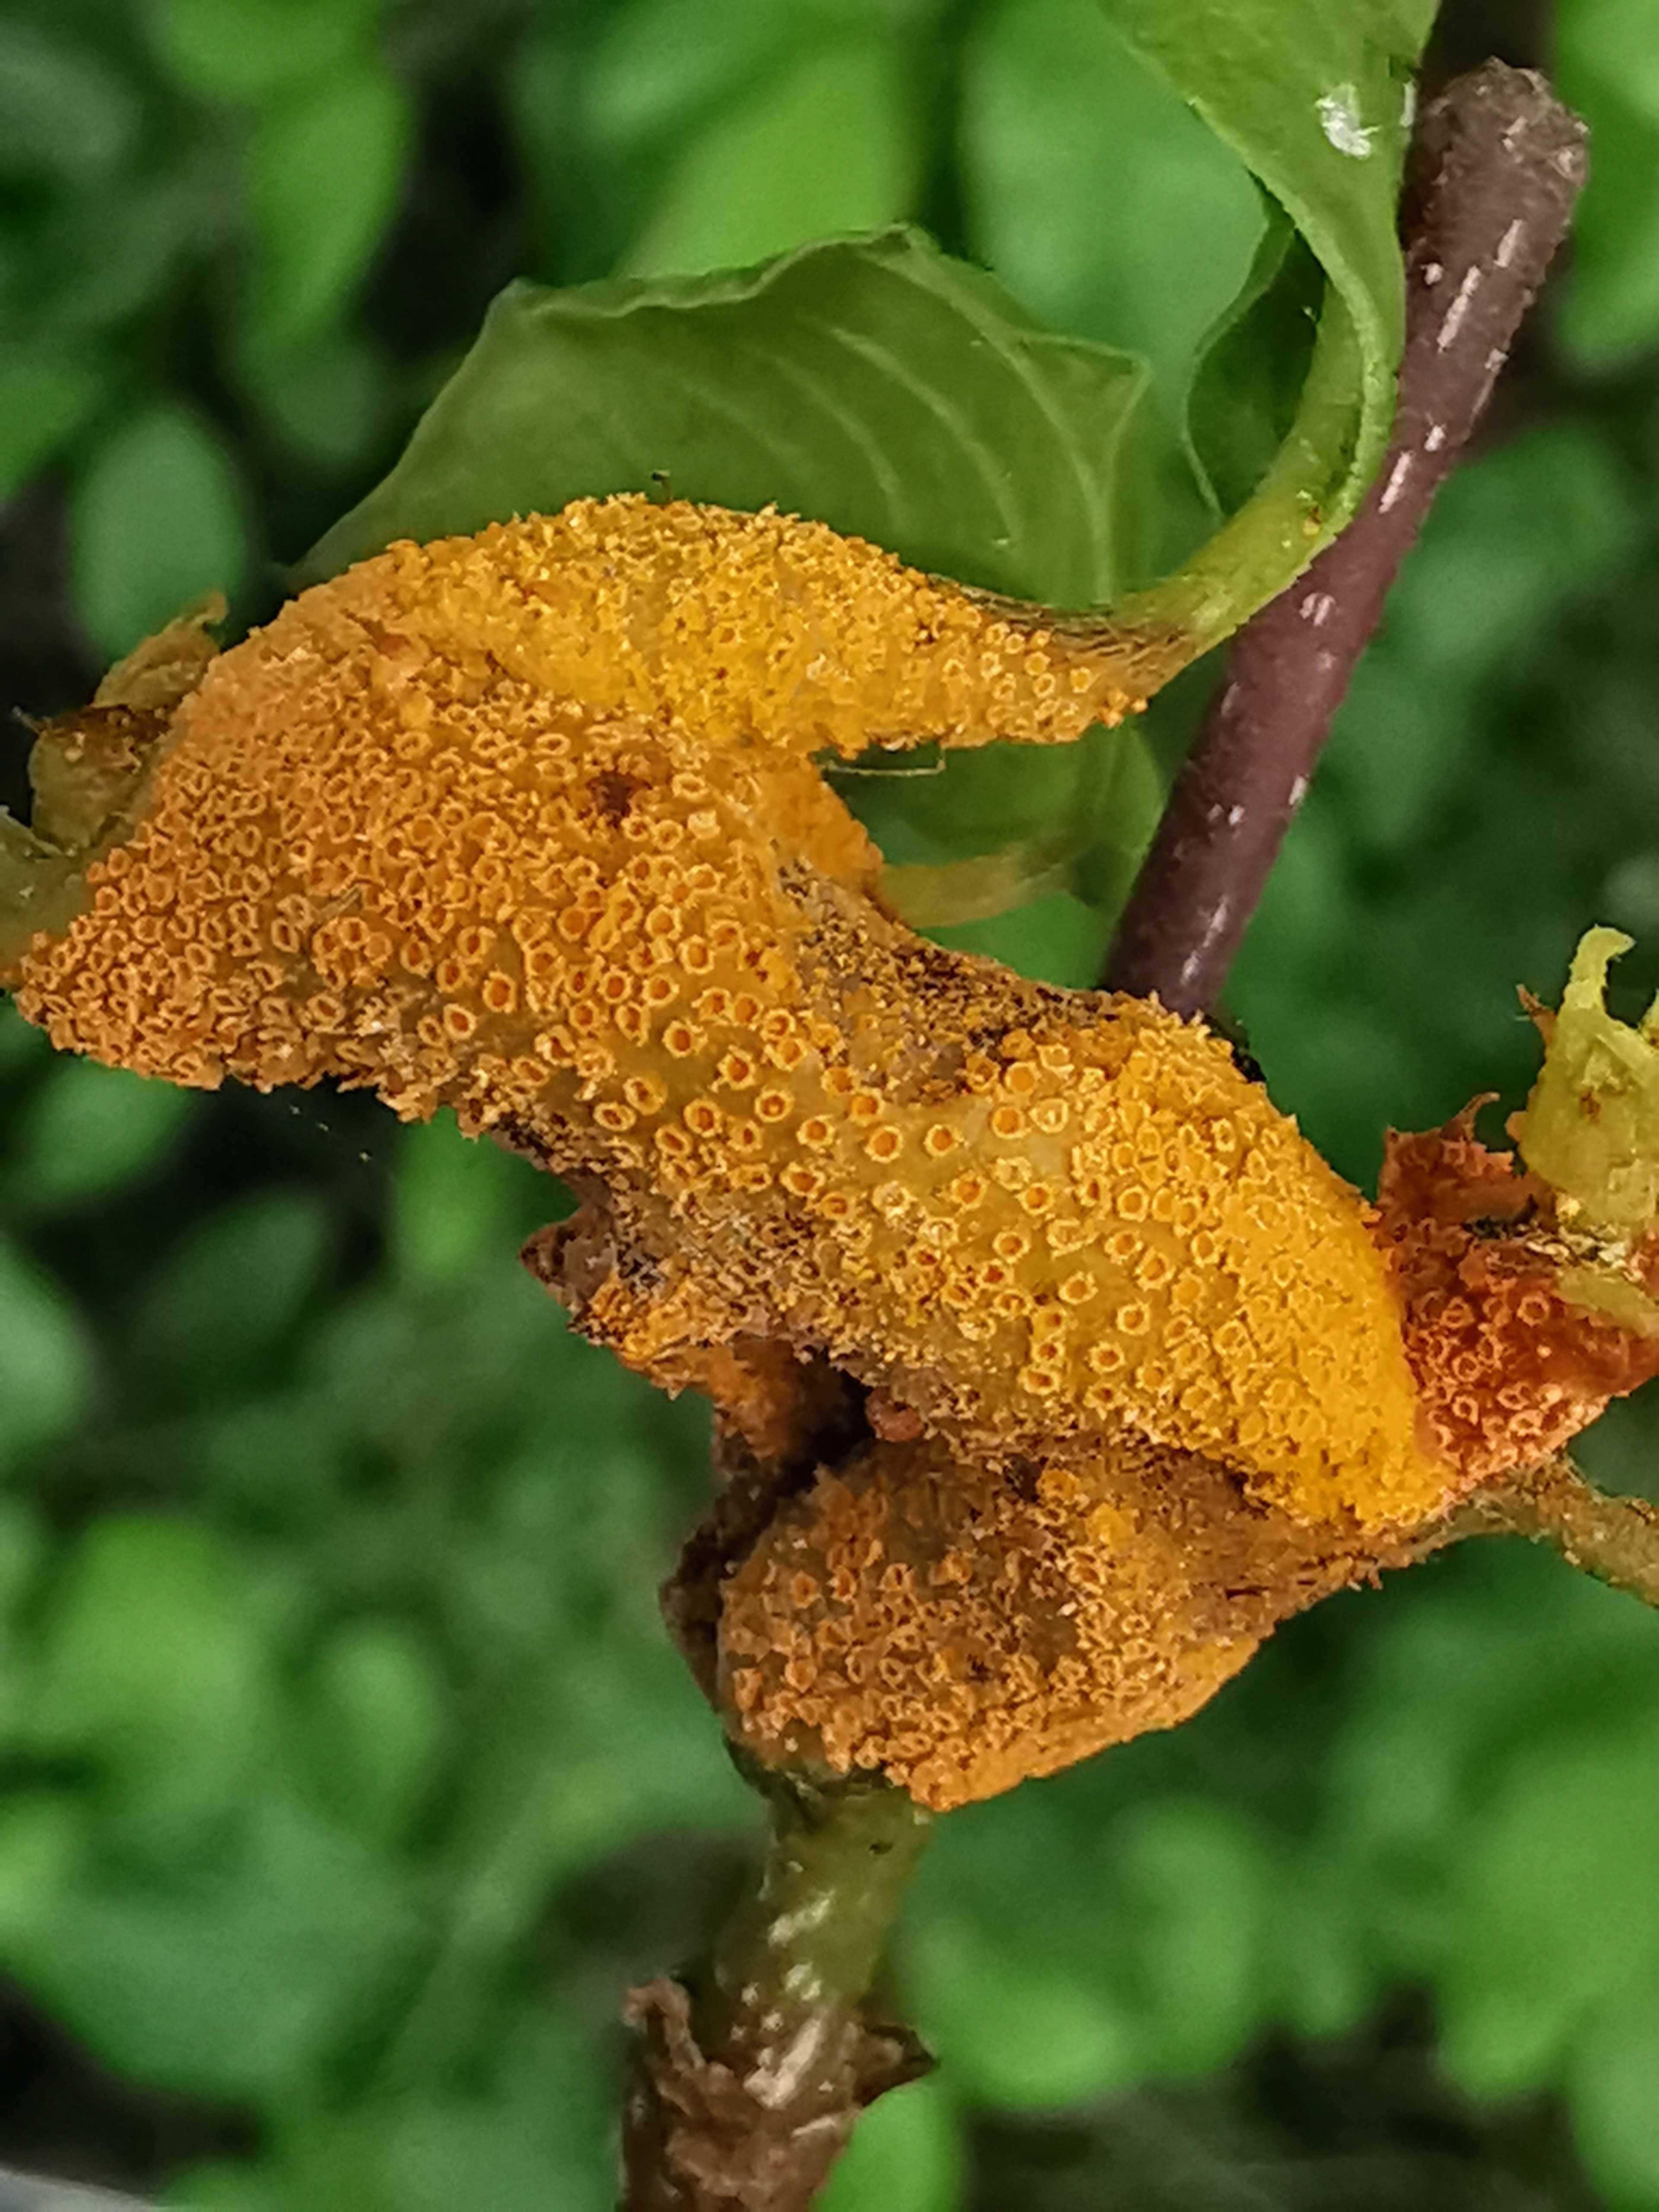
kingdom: Fungi
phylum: Basidiomycota
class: Pucciniomycetes
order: Pucciniales
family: Pucciniaceae
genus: Puccinia
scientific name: Puccinia coronata
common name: Crown rust
